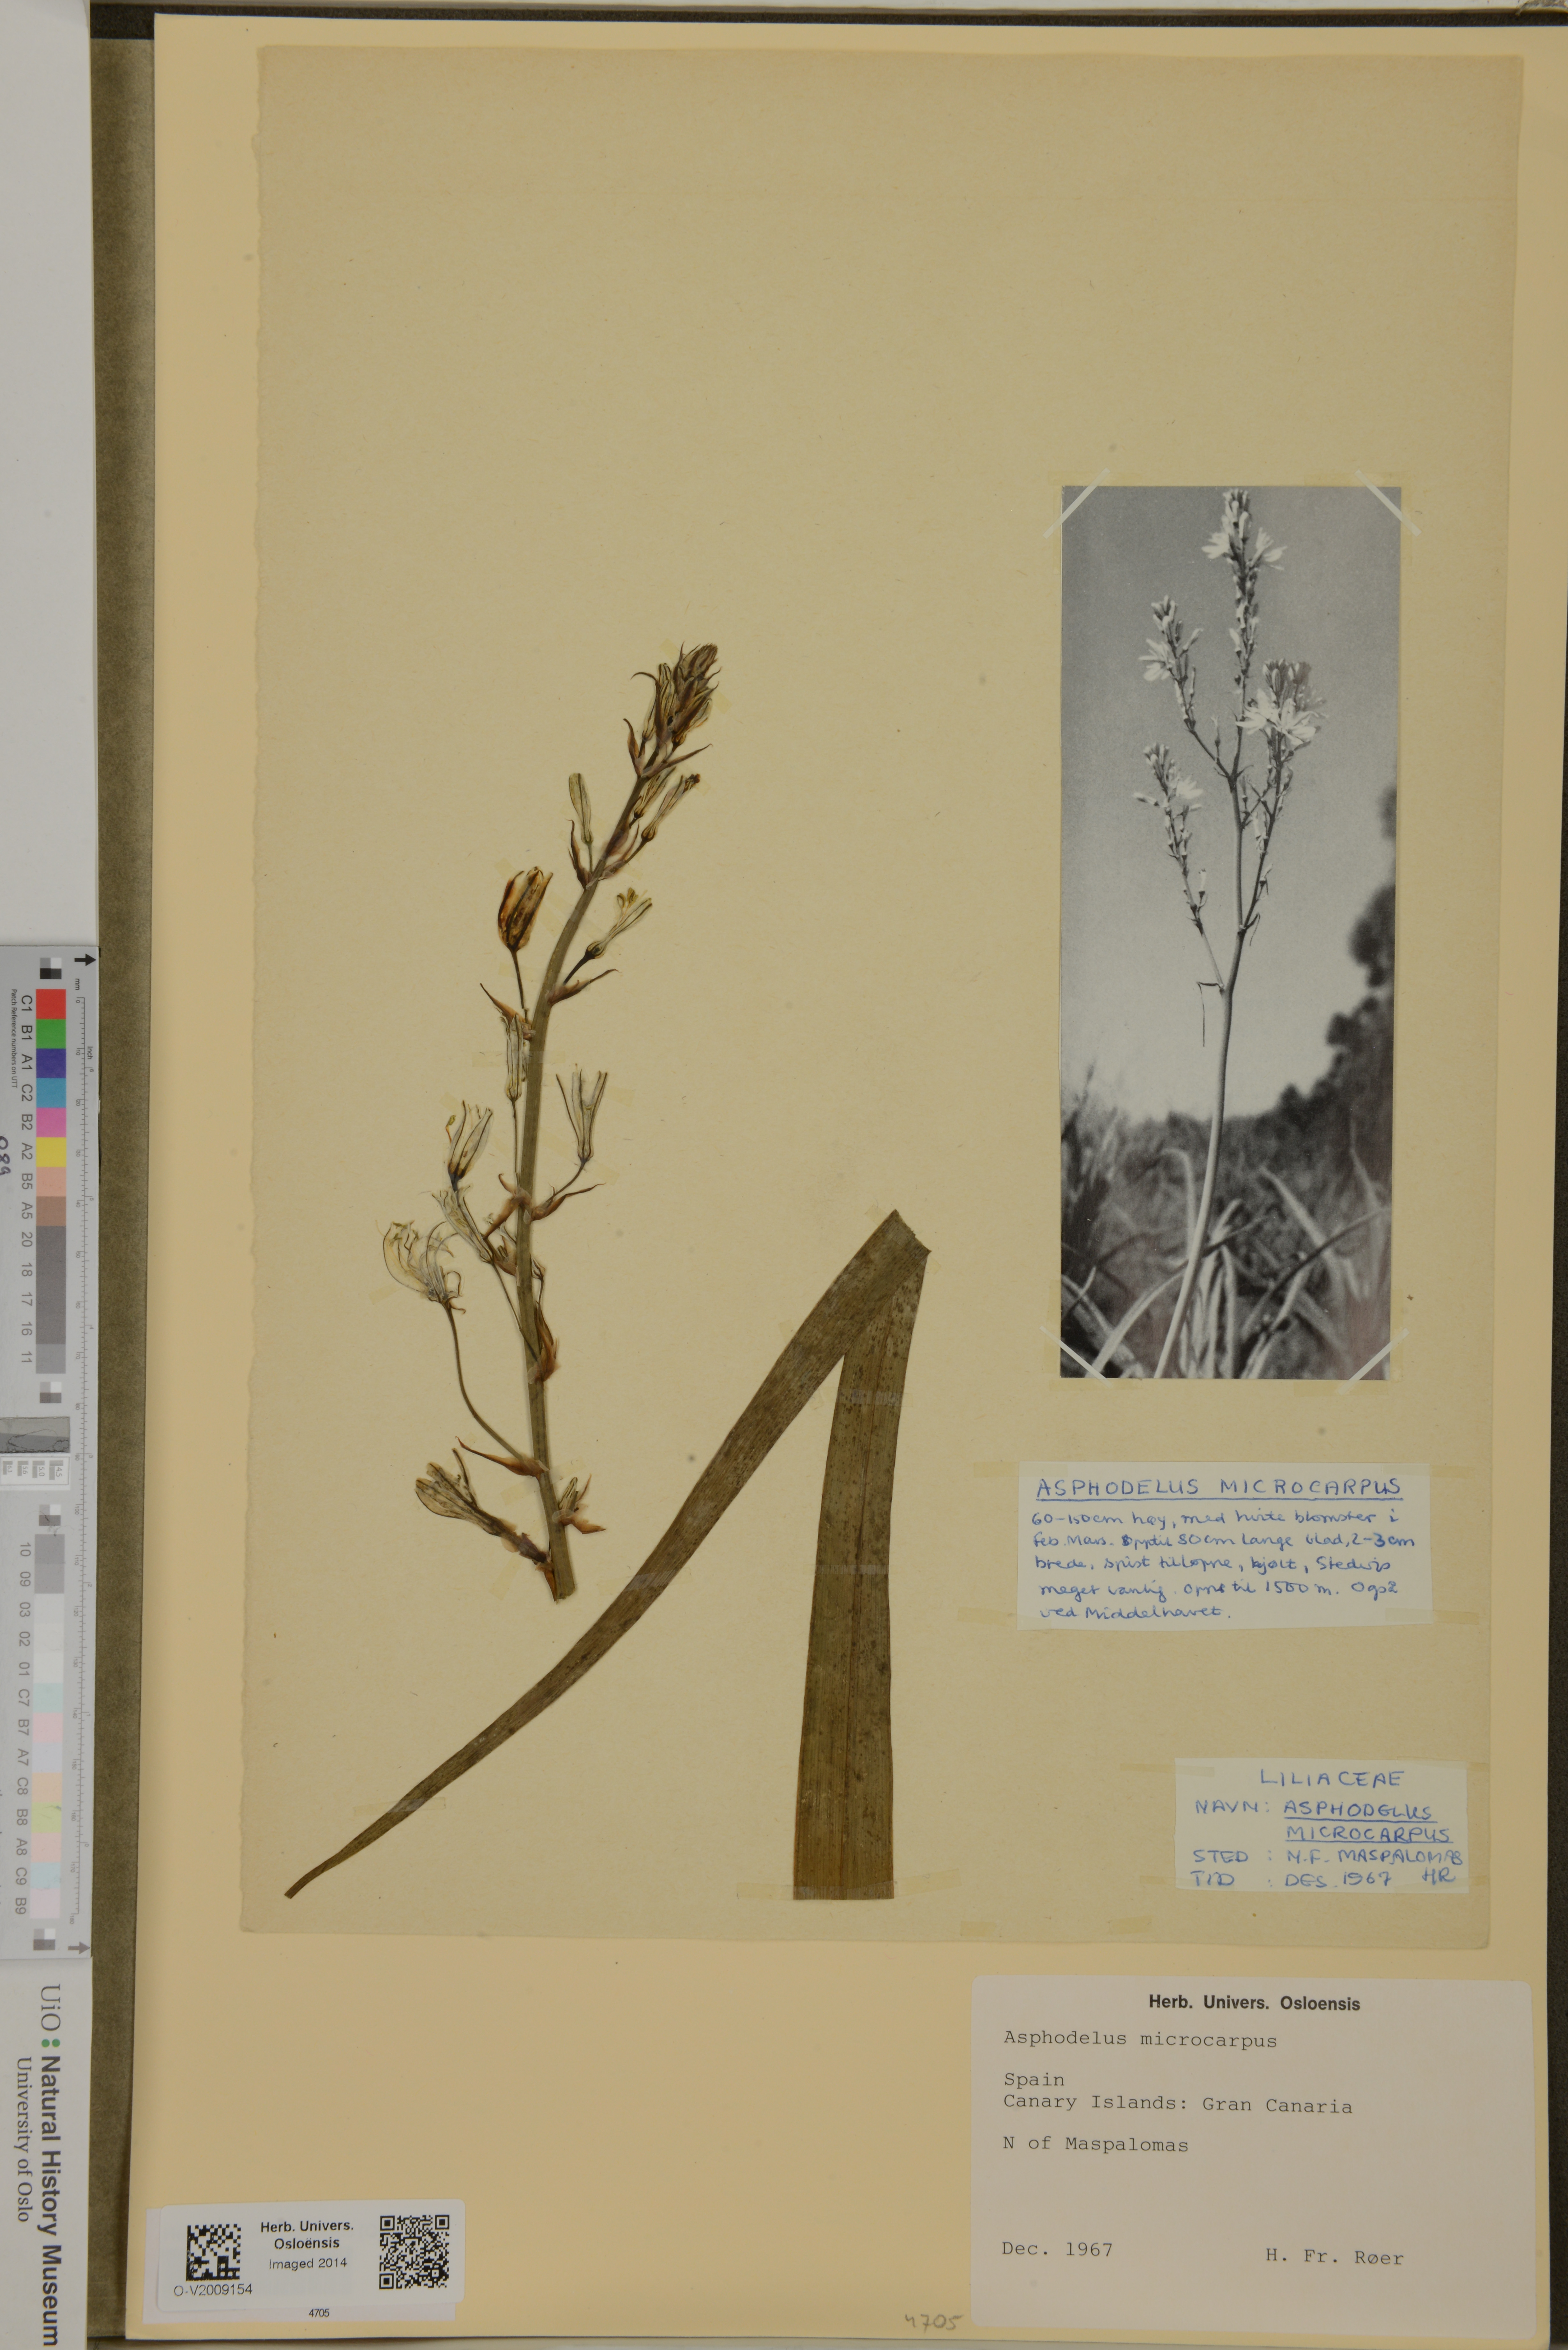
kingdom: Plantae
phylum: Tracheophyta
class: Liliopsida
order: Asparagales
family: Asphodelaceae
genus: Asphodelus
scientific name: Asphodelus
